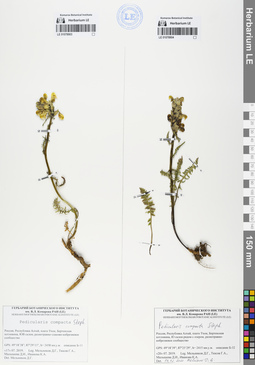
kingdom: Plantae
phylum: Tracheophyta
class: Magnoliopsida
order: Lamiales
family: Orobanchaceae
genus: Pedicularis
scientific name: Pedicularis compacta
